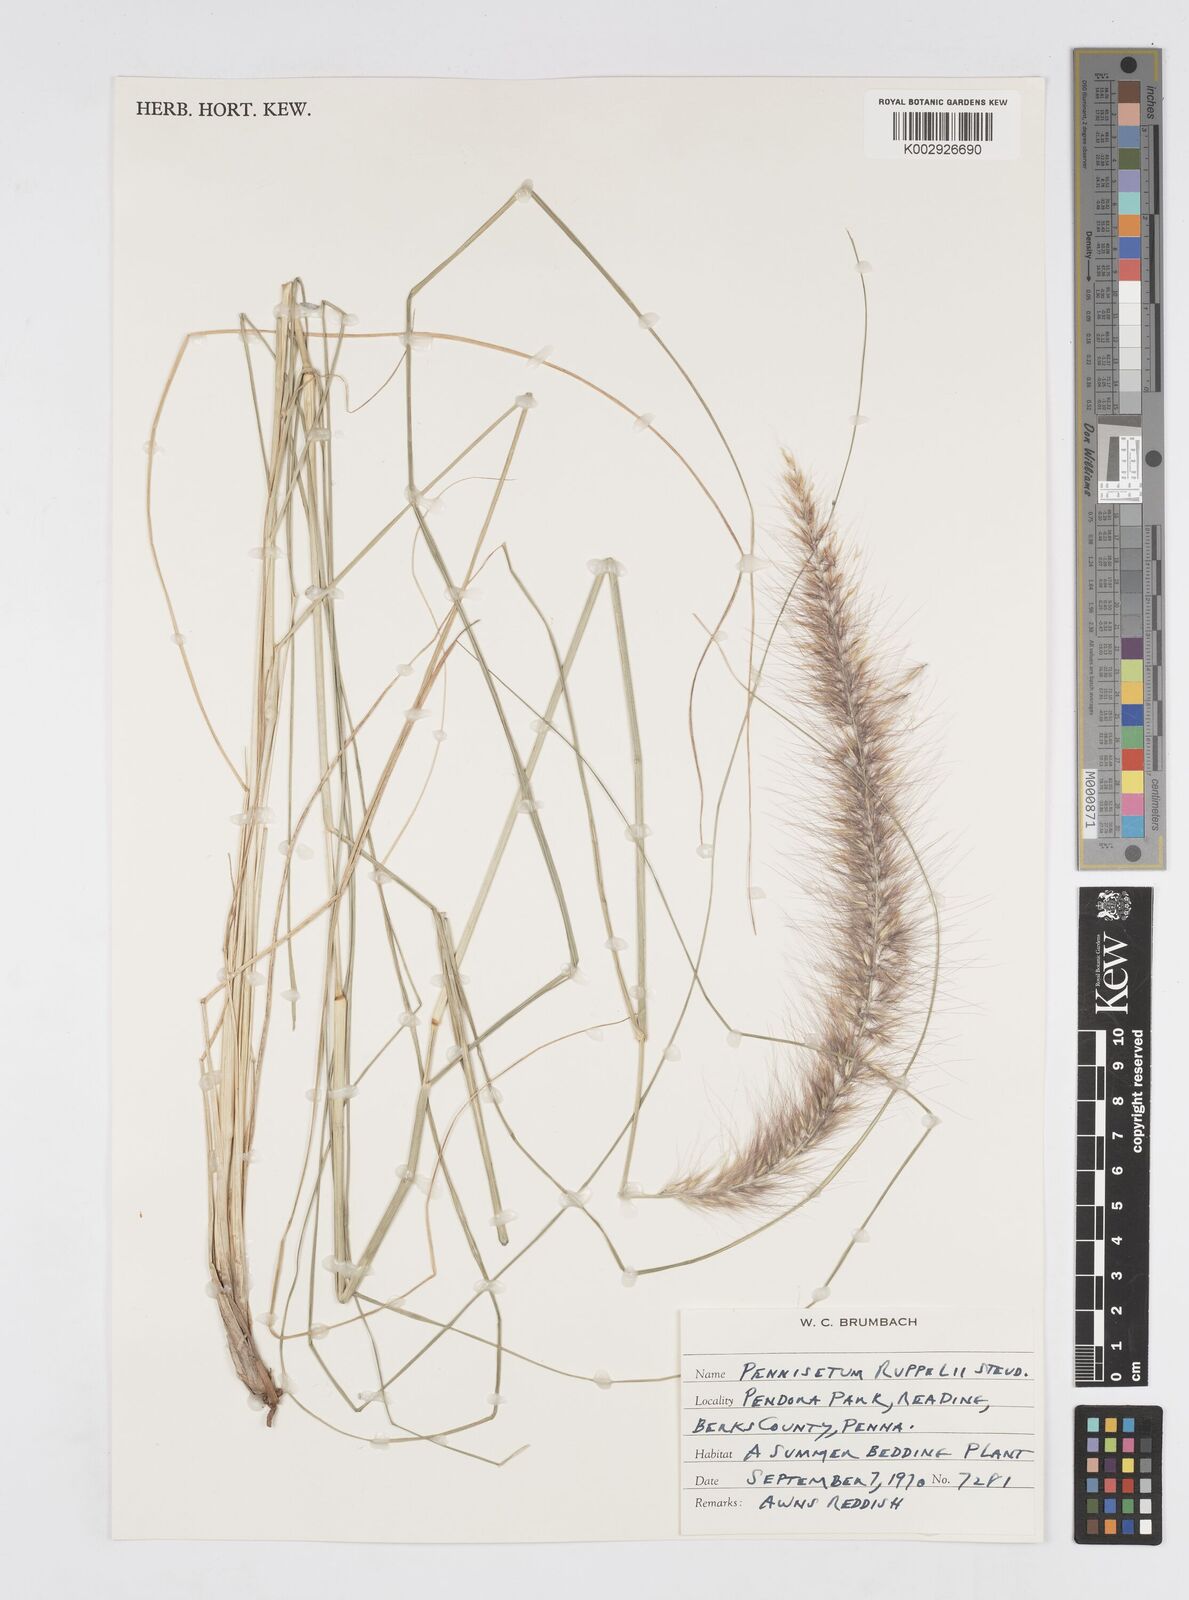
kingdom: Plantae
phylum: Tracheophyta
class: Liliopsida
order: Poales
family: Poaceae
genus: Cenchrus
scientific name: Cenchrus setaceus
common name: Crimson fountaingrass
